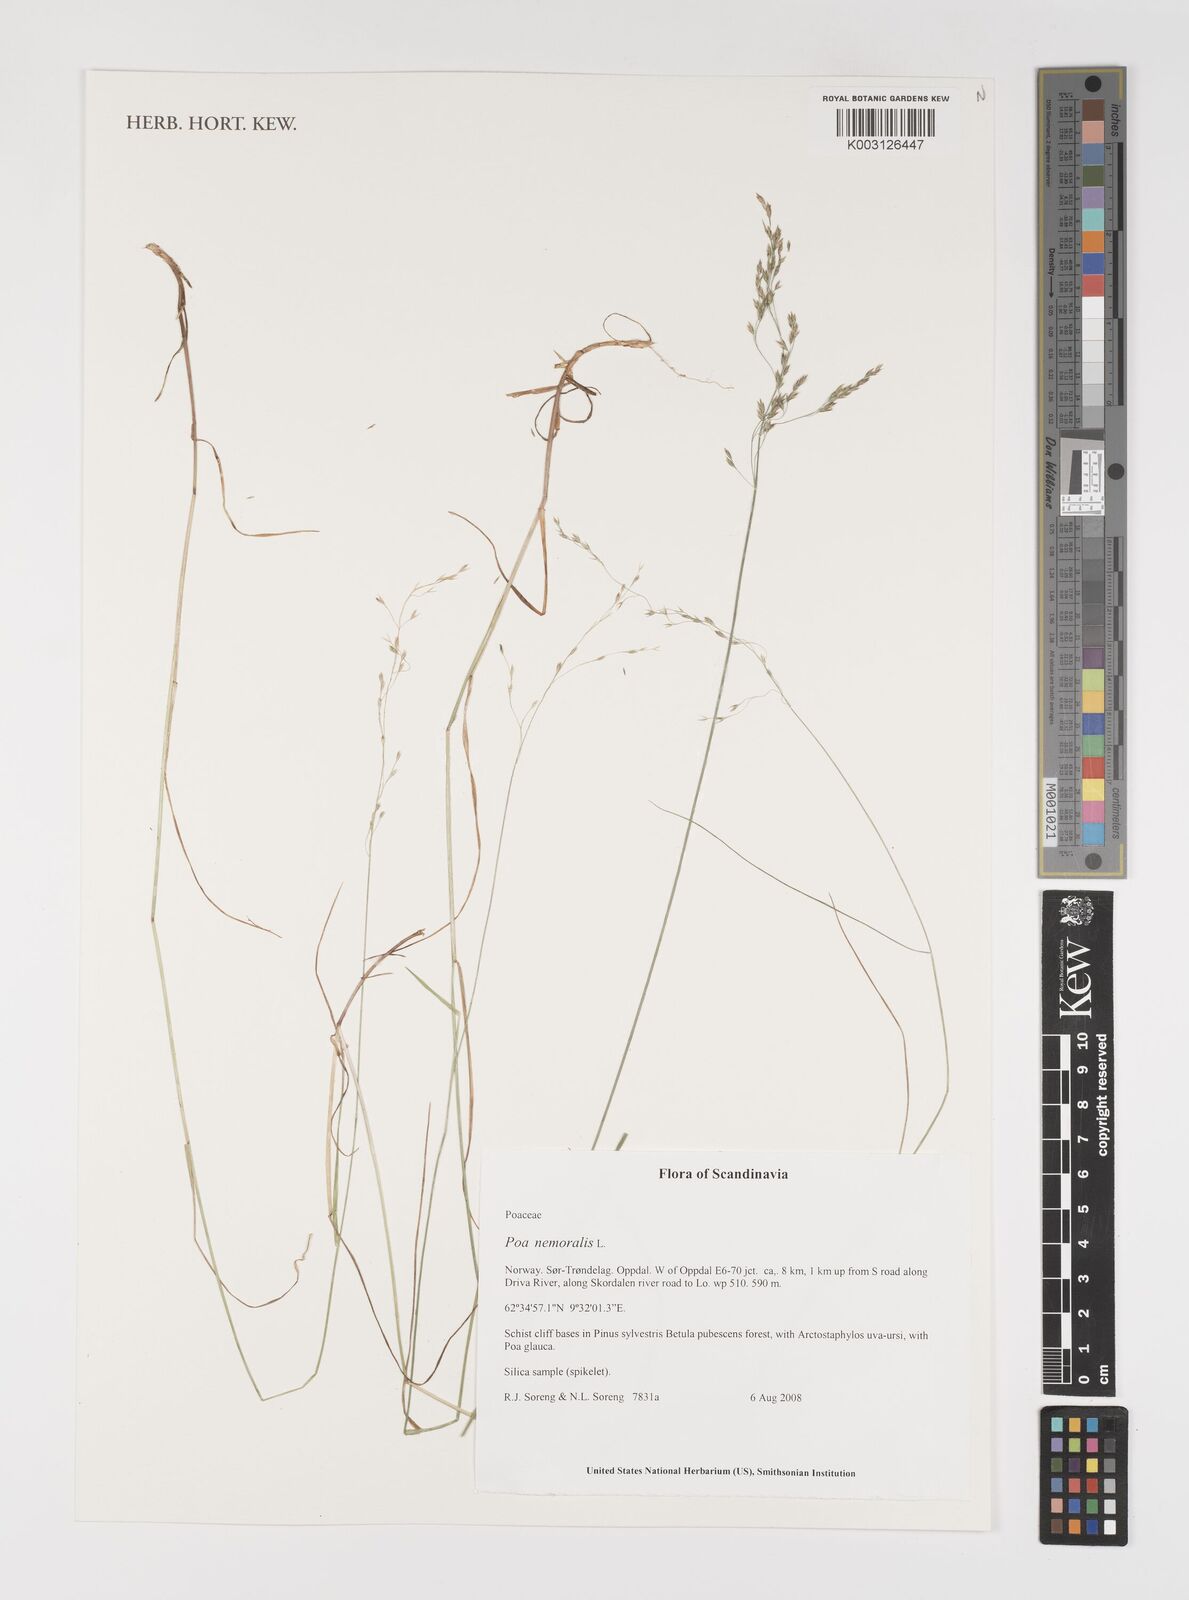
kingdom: Plantae
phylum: Tracheophyta
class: Liliopsida
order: Poales
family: Poaceae
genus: Poa
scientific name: Poa nemoralis
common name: Wood bluegrass
